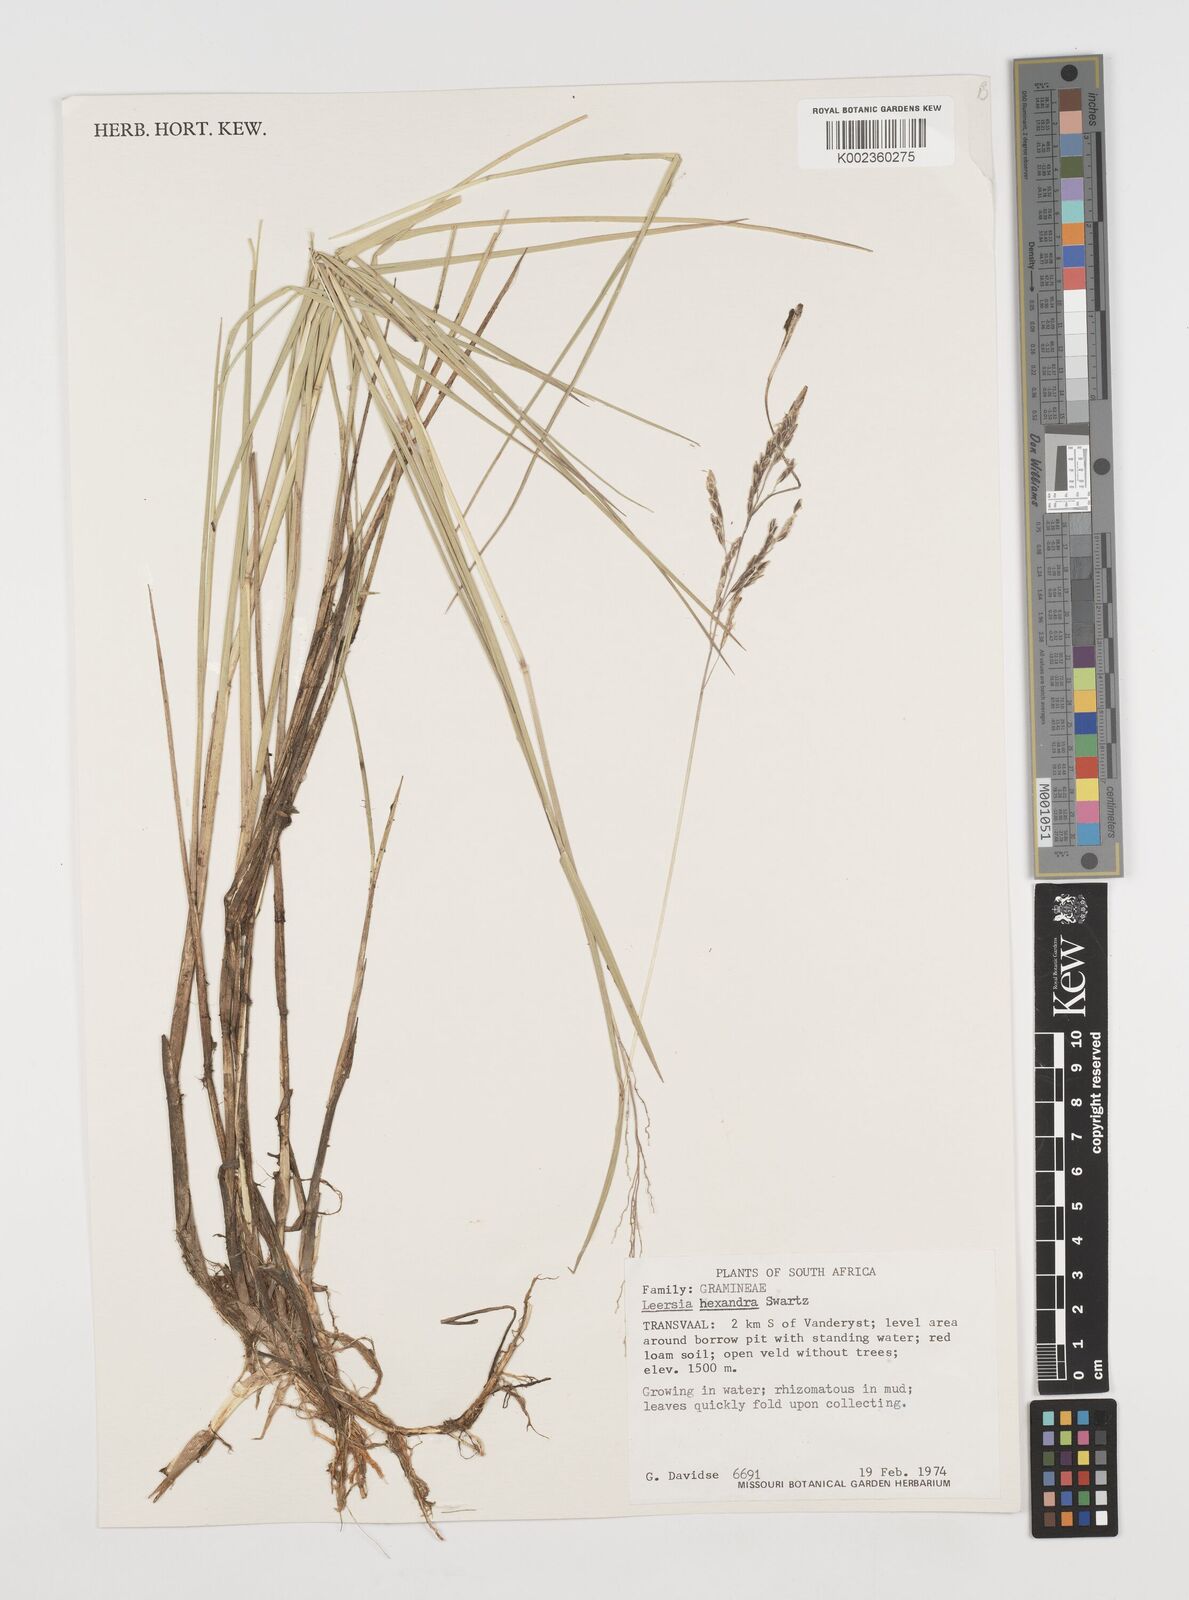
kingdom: Plantae
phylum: Tracheophyta
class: Liliopsida
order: Poales
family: Poaceae
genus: Leersia
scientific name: Leersia hexandra
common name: Southern cut grass
